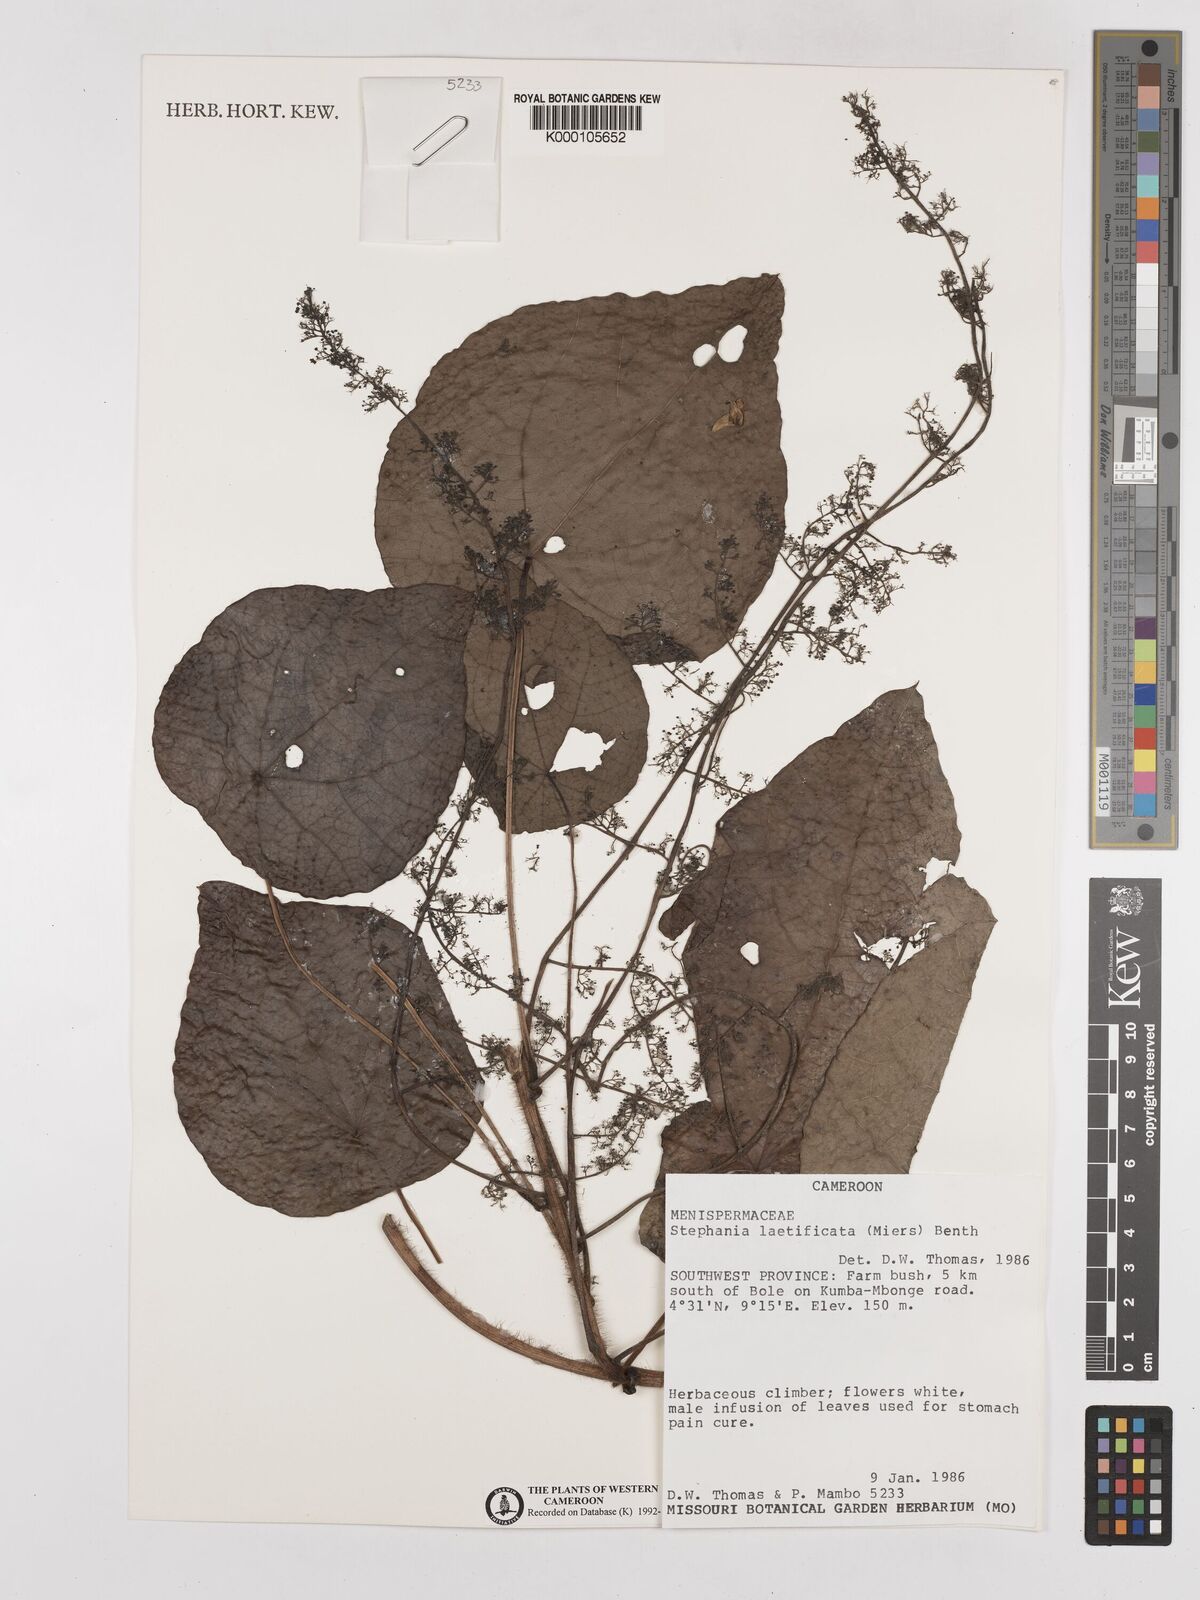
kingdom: Plantae
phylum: Tracheophyta
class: Magnoliopsida
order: Ranunculales
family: Menispermaceae
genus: Perichasma
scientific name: Perichasma laetificata
